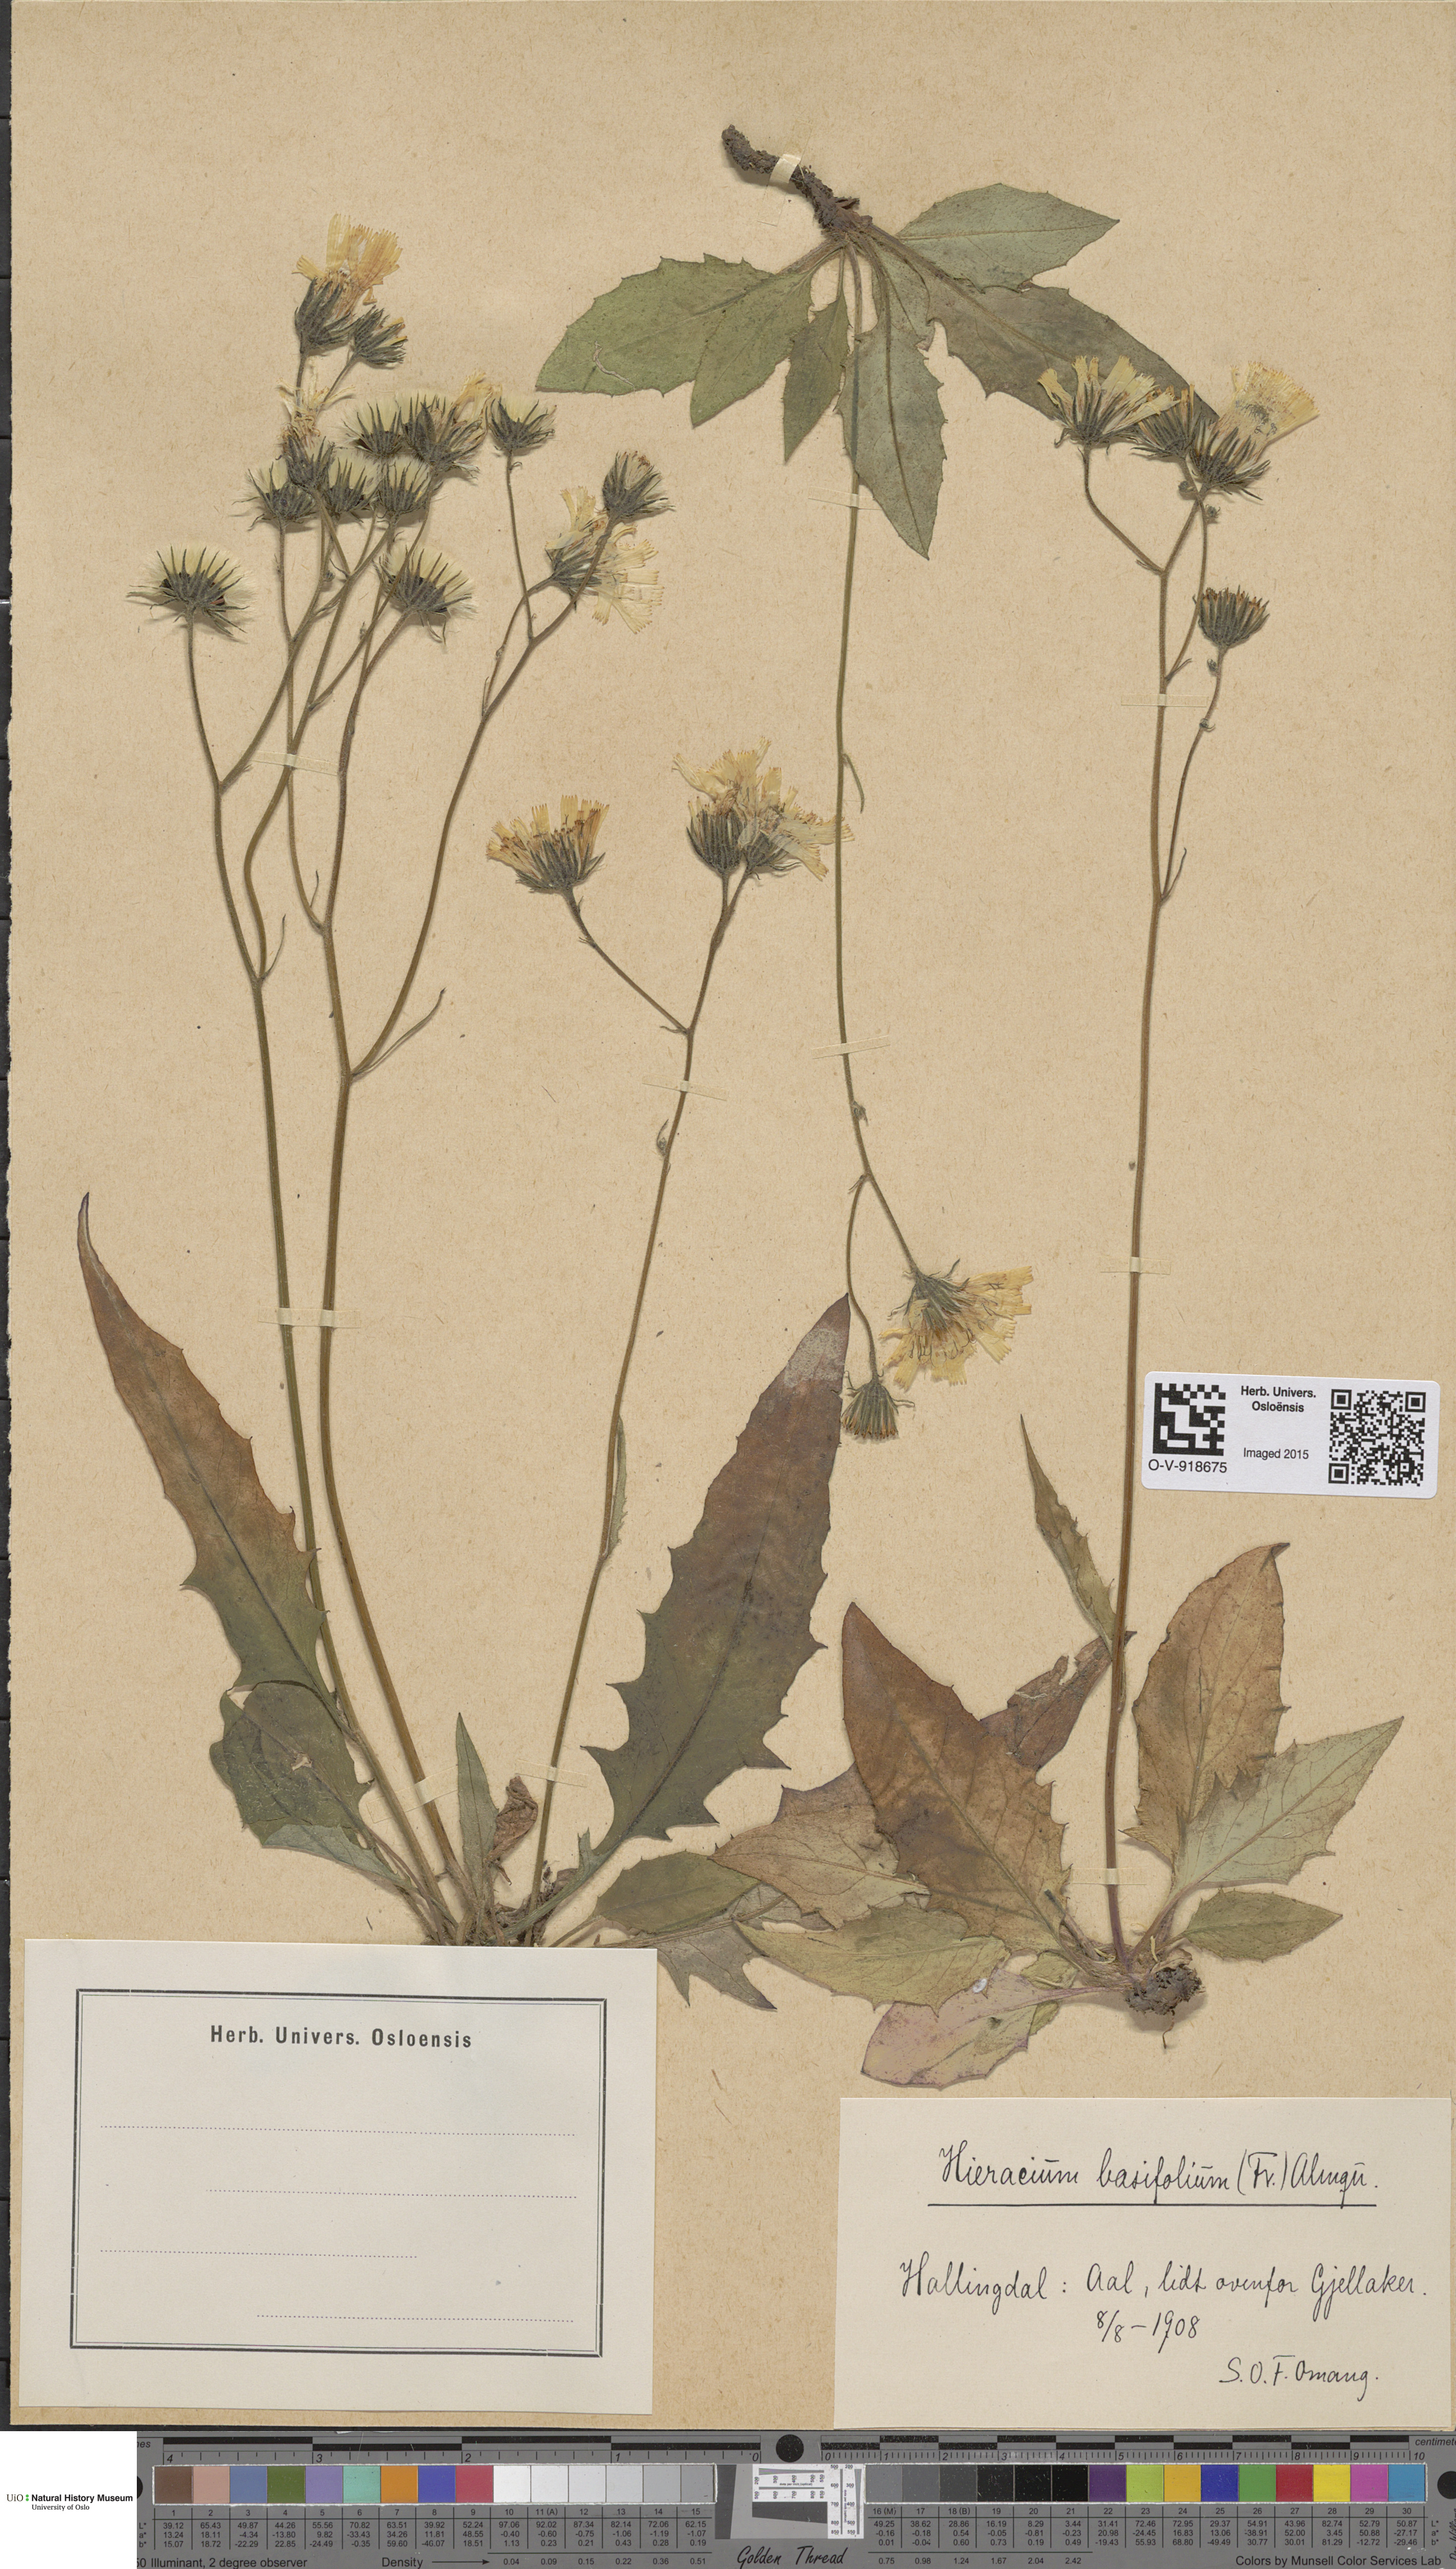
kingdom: Plantae
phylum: Tracheophyta
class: Magnoliopsida
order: Asterales
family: Asteraceae
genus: Hieracium
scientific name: Hieracium basifolium
